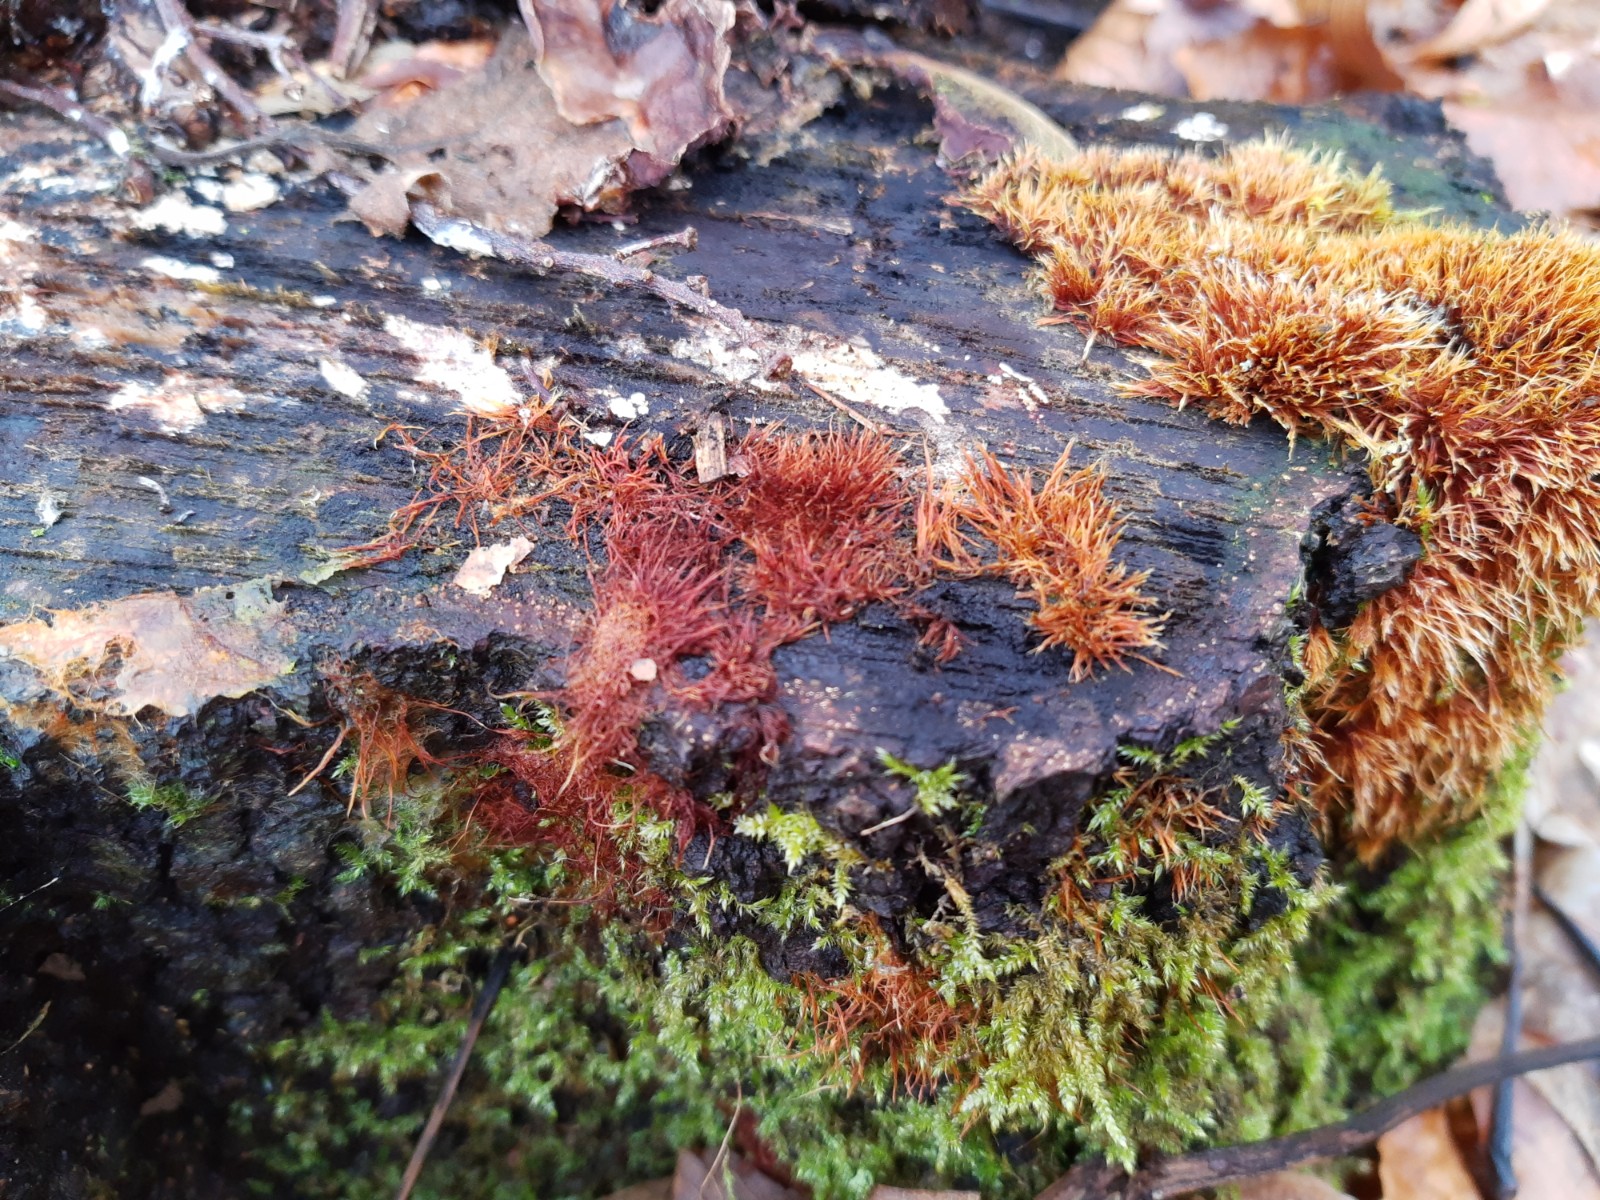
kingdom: Fungi
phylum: Basidiomycota
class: Agaricomycetes
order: Agaricales
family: Psathyrellaceae
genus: Ozonium
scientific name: Ozonium
